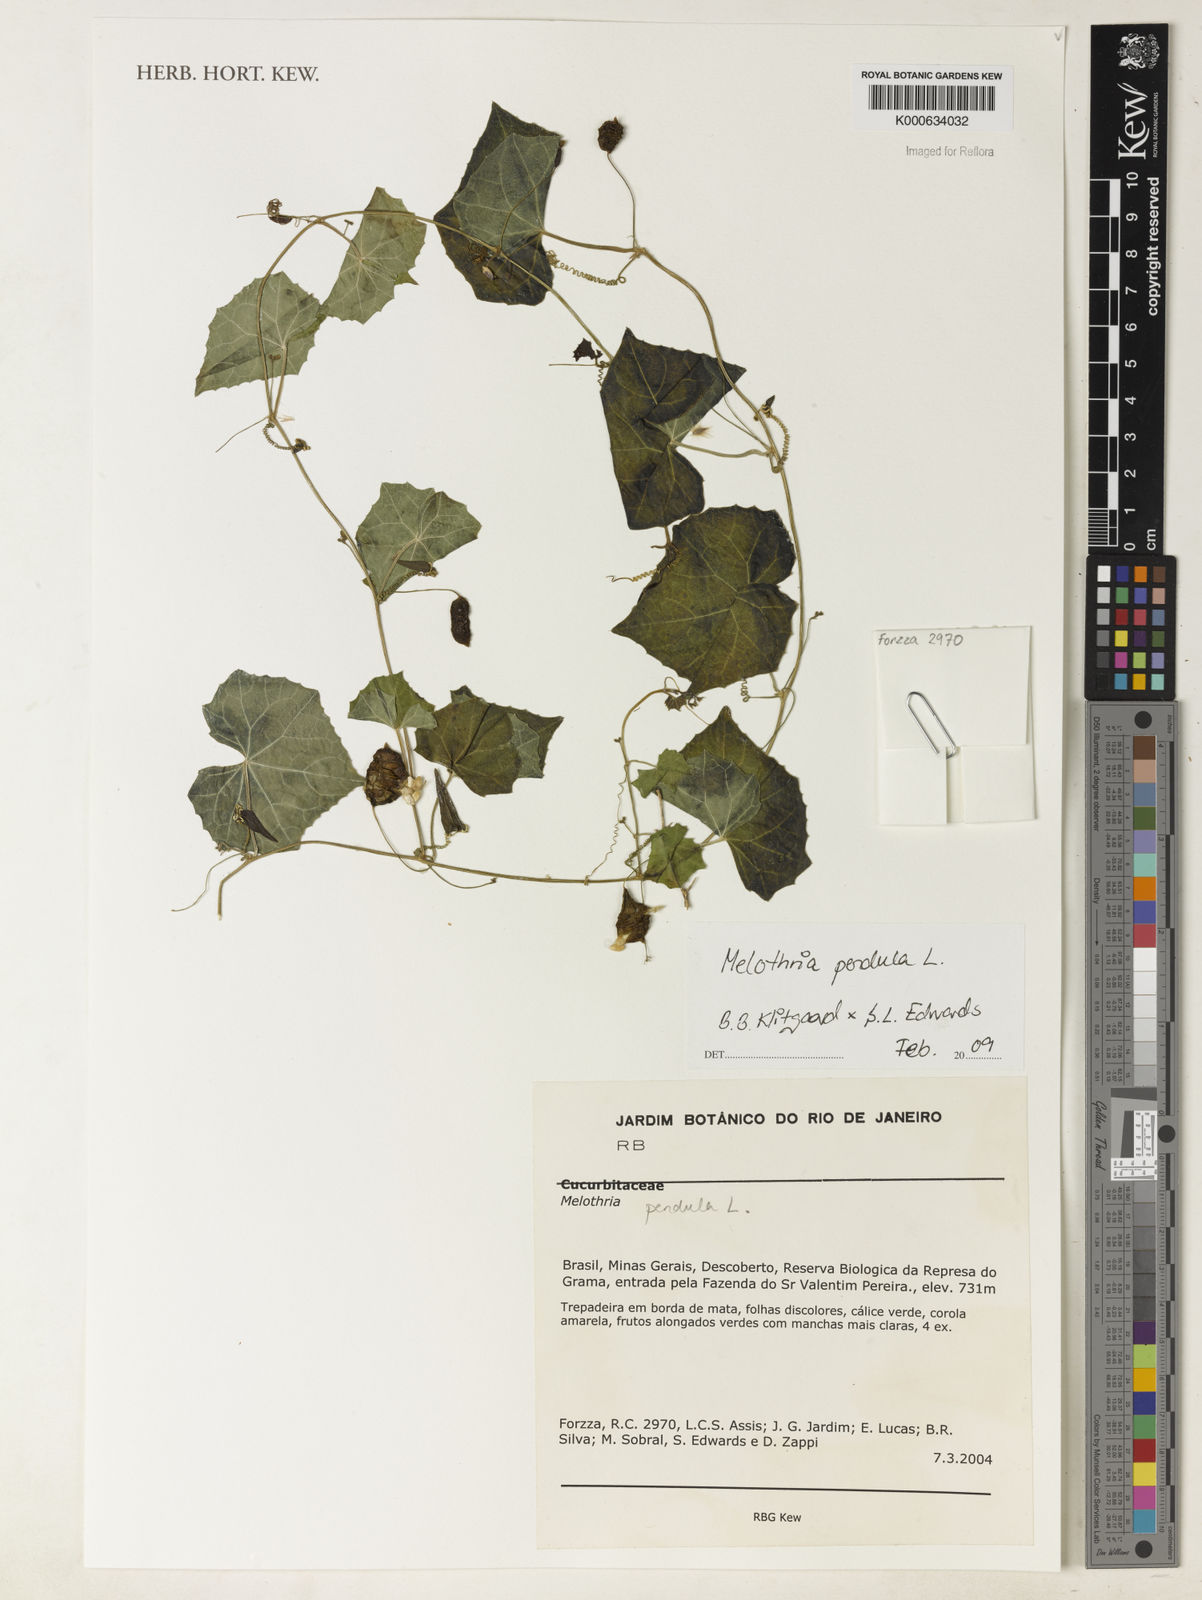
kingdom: Plantae
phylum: Tracheophyta
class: Magnoliopsida
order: Cucurbitales
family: Cucurbitaceae
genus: Melothria
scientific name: Melothria pendula
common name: Creeping-cucumber
